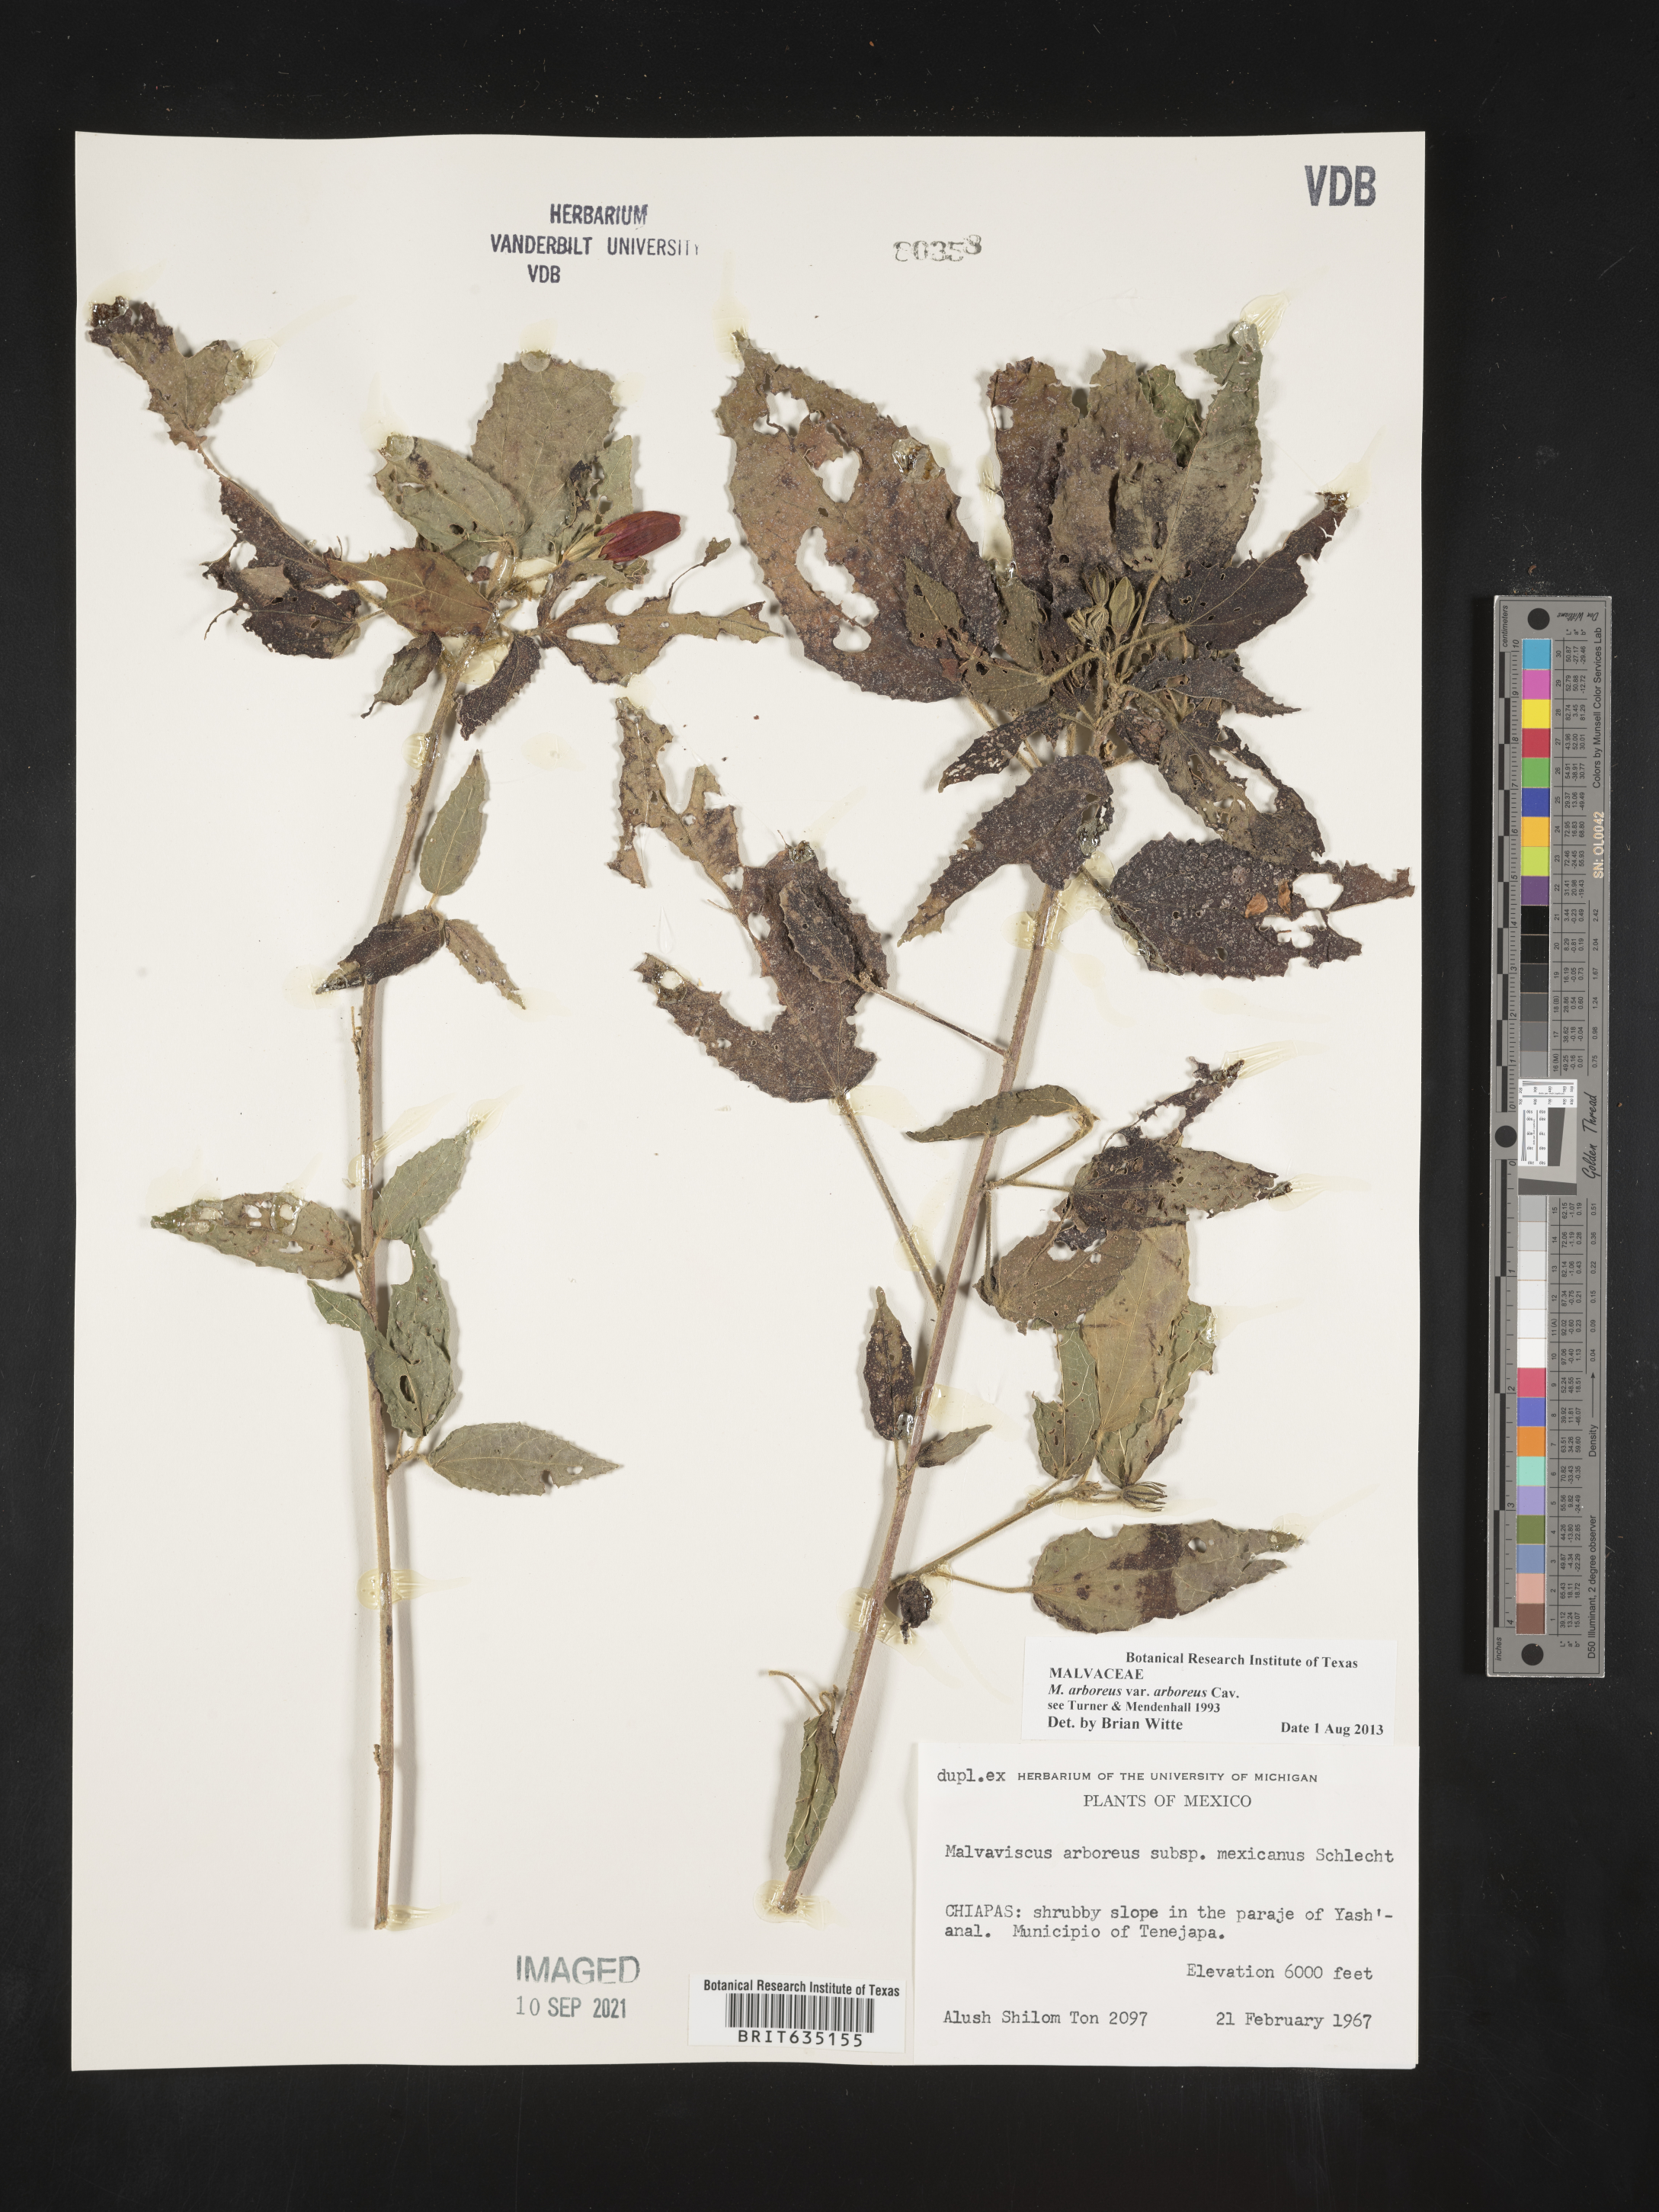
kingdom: Plantae
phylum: Tracheophyta
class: Magnoliopsida
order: Malvales
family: Malvaceae
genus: Malvaviscus
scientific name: Malvaviscus
